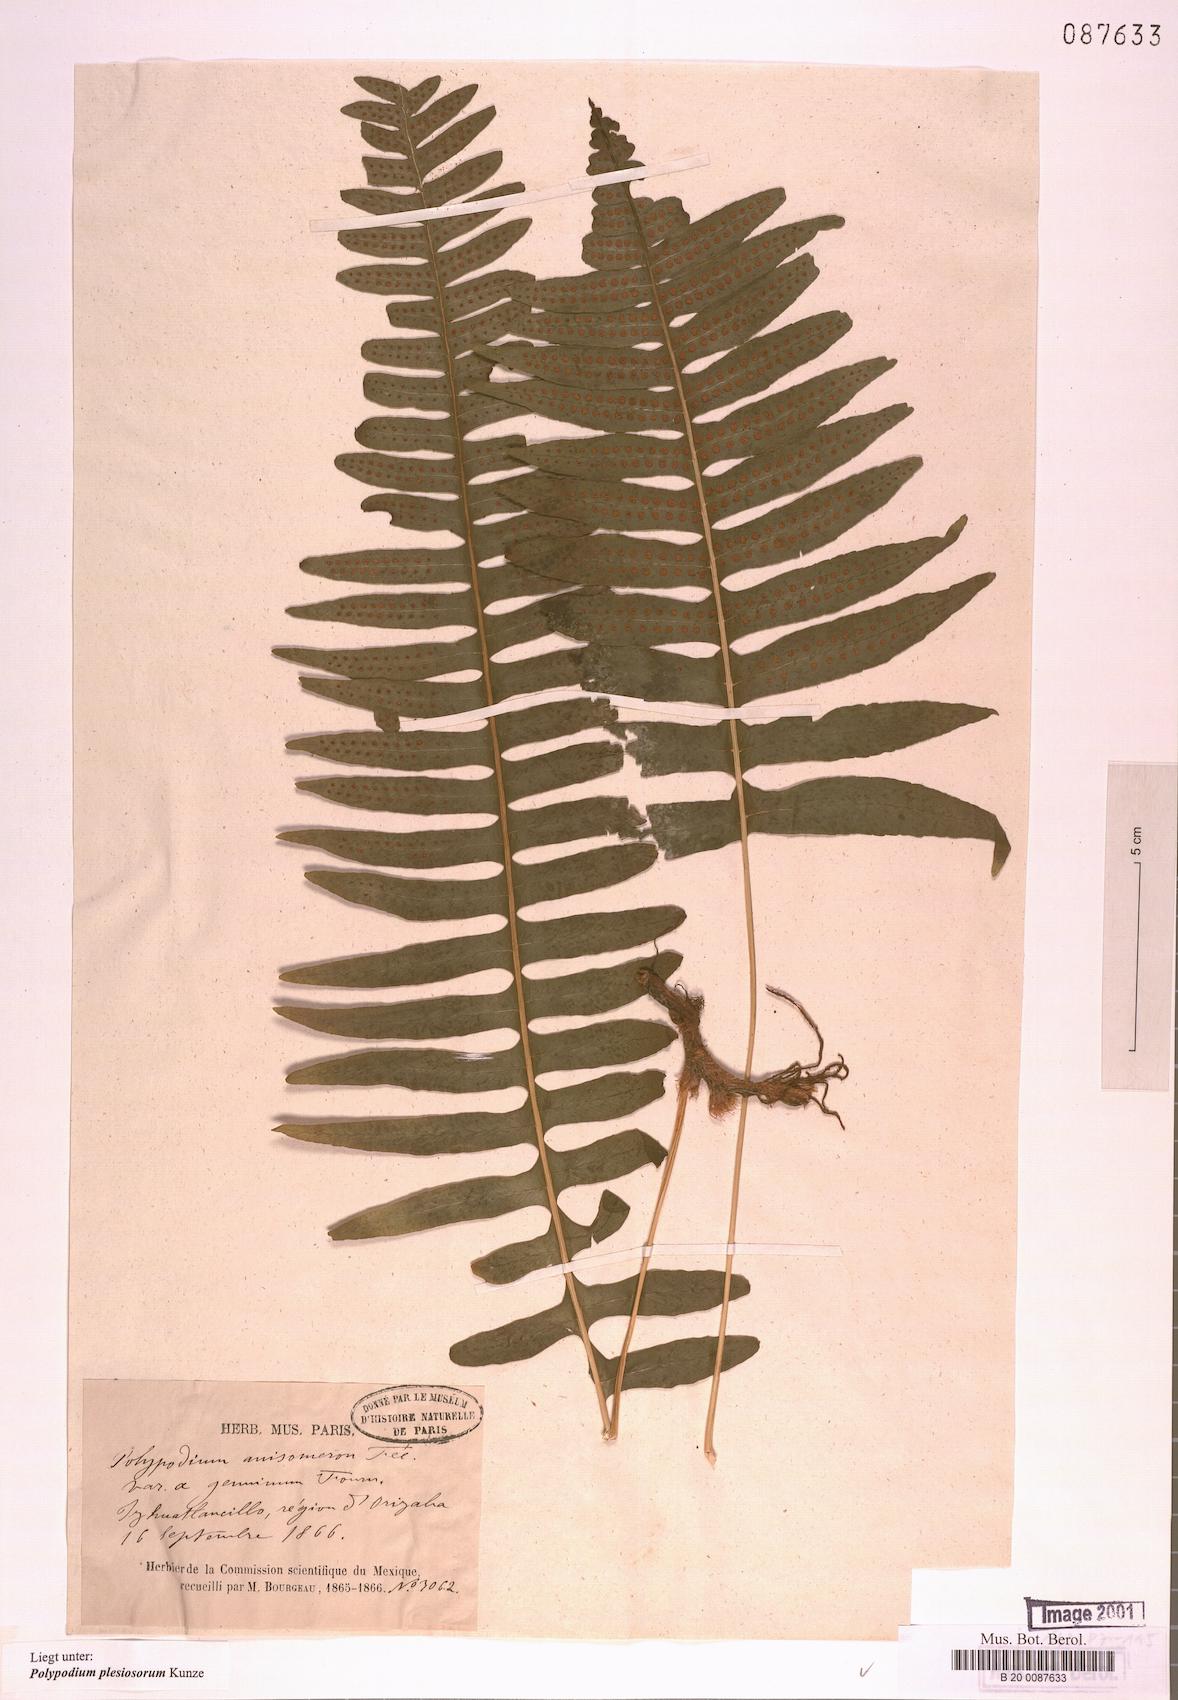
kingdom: Plantae
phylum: Tracheophyta
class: Polypodiopsida
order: Polypodiales
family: Polypodiaceae
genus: Polypodium
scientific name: Polypodium plesiosorum
